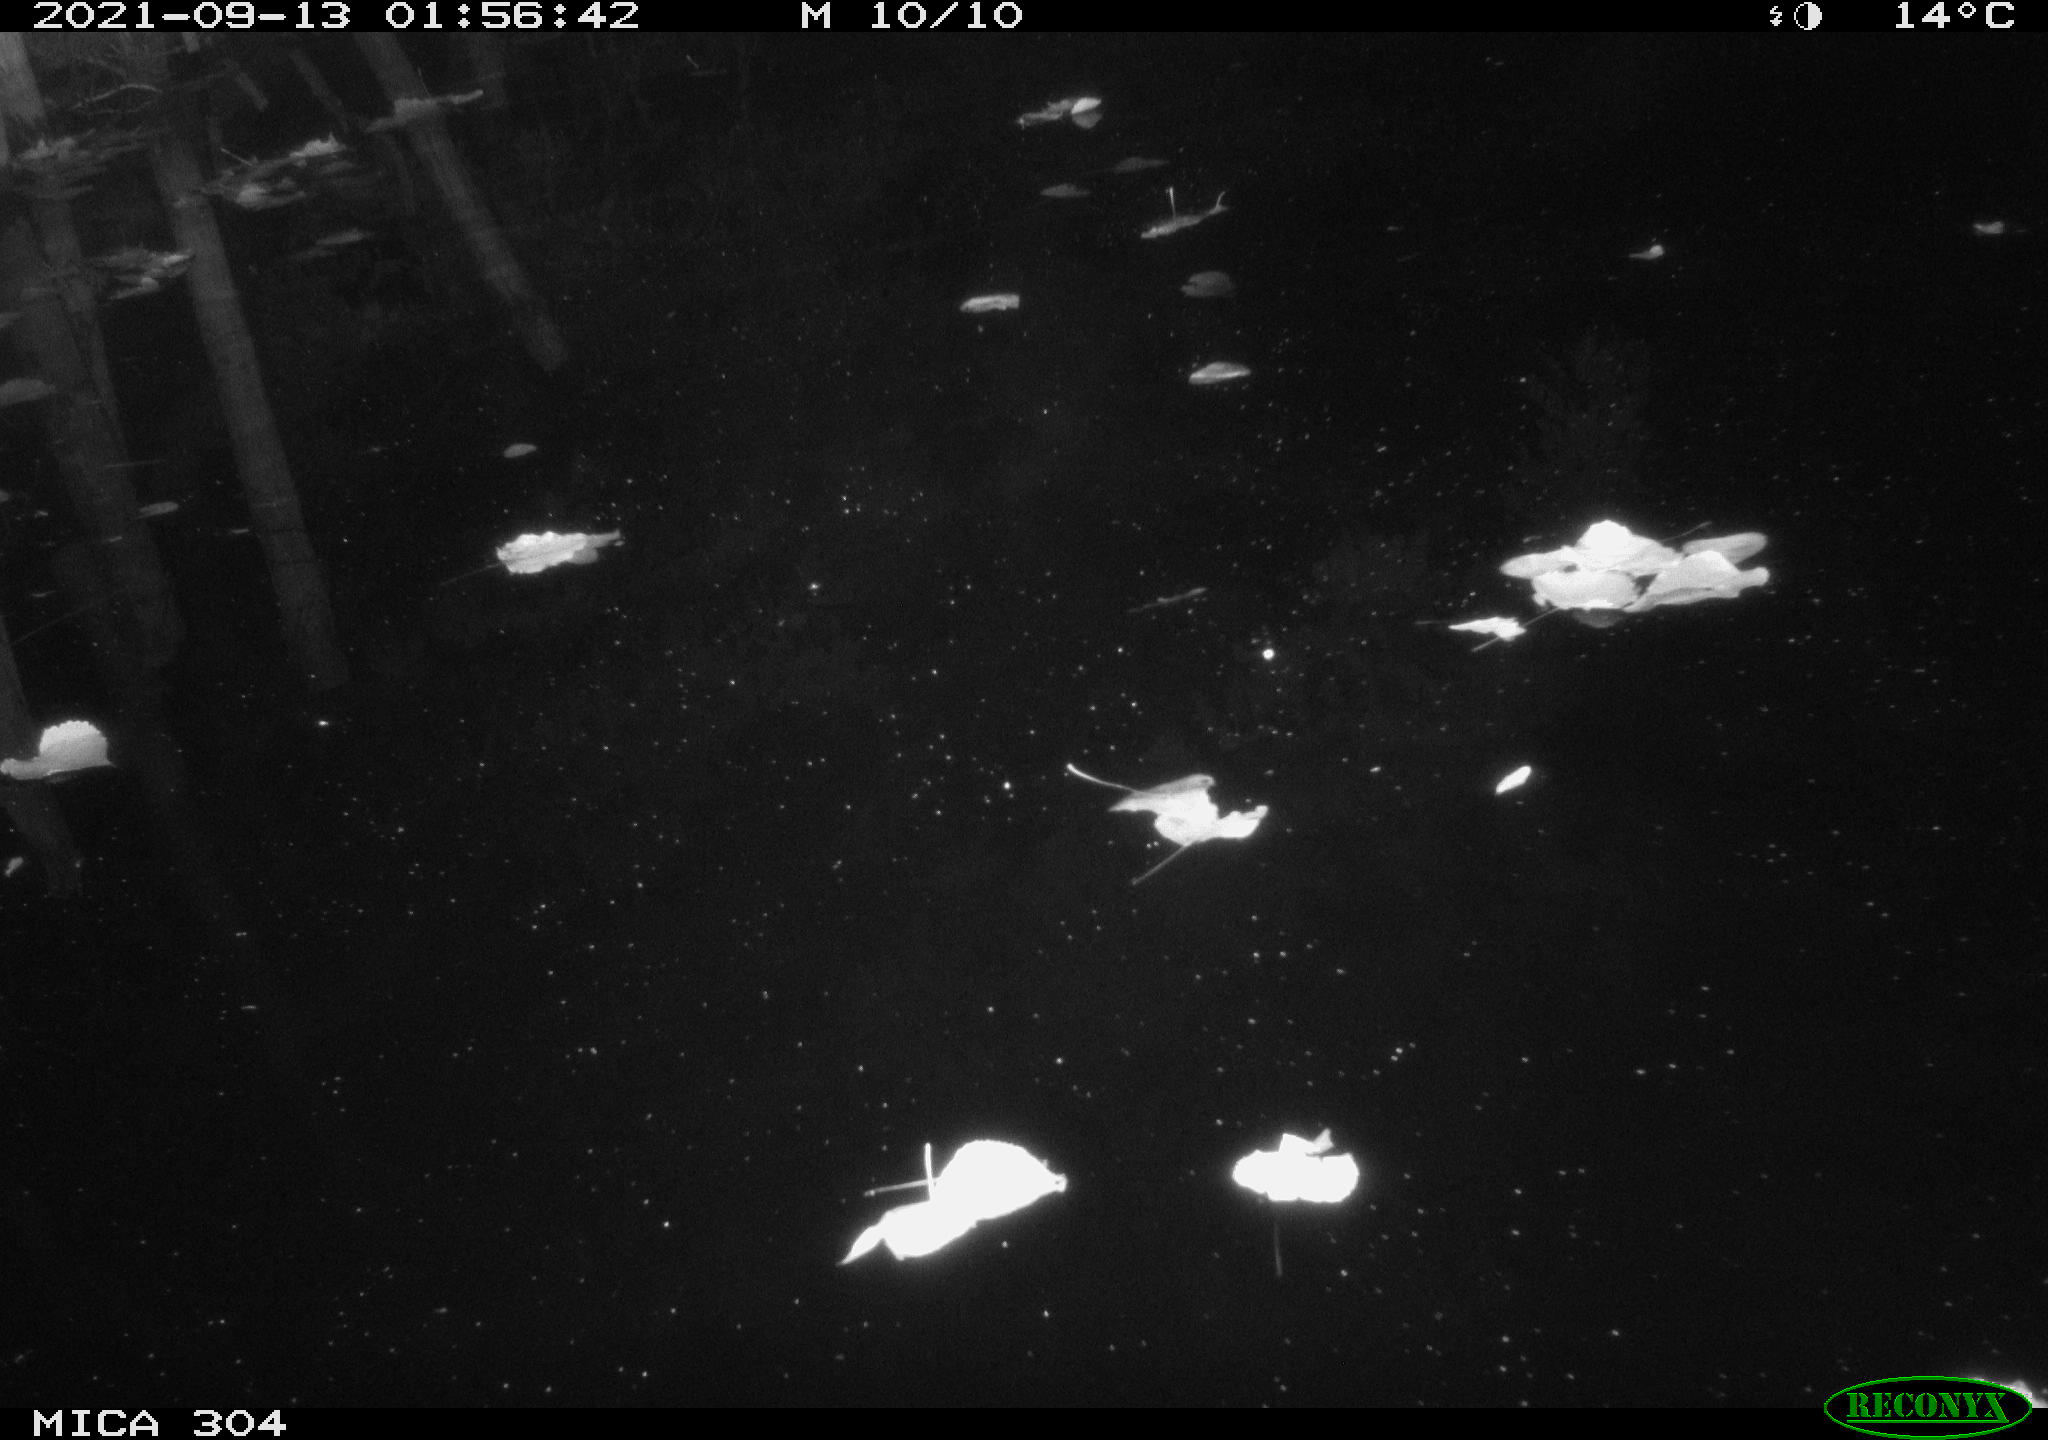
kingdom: Animalia
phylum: Chordata
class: Aves
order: Anseriformes
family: Anatidae
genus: Anas
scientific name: Anas platyrhynchos
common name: Mallard
